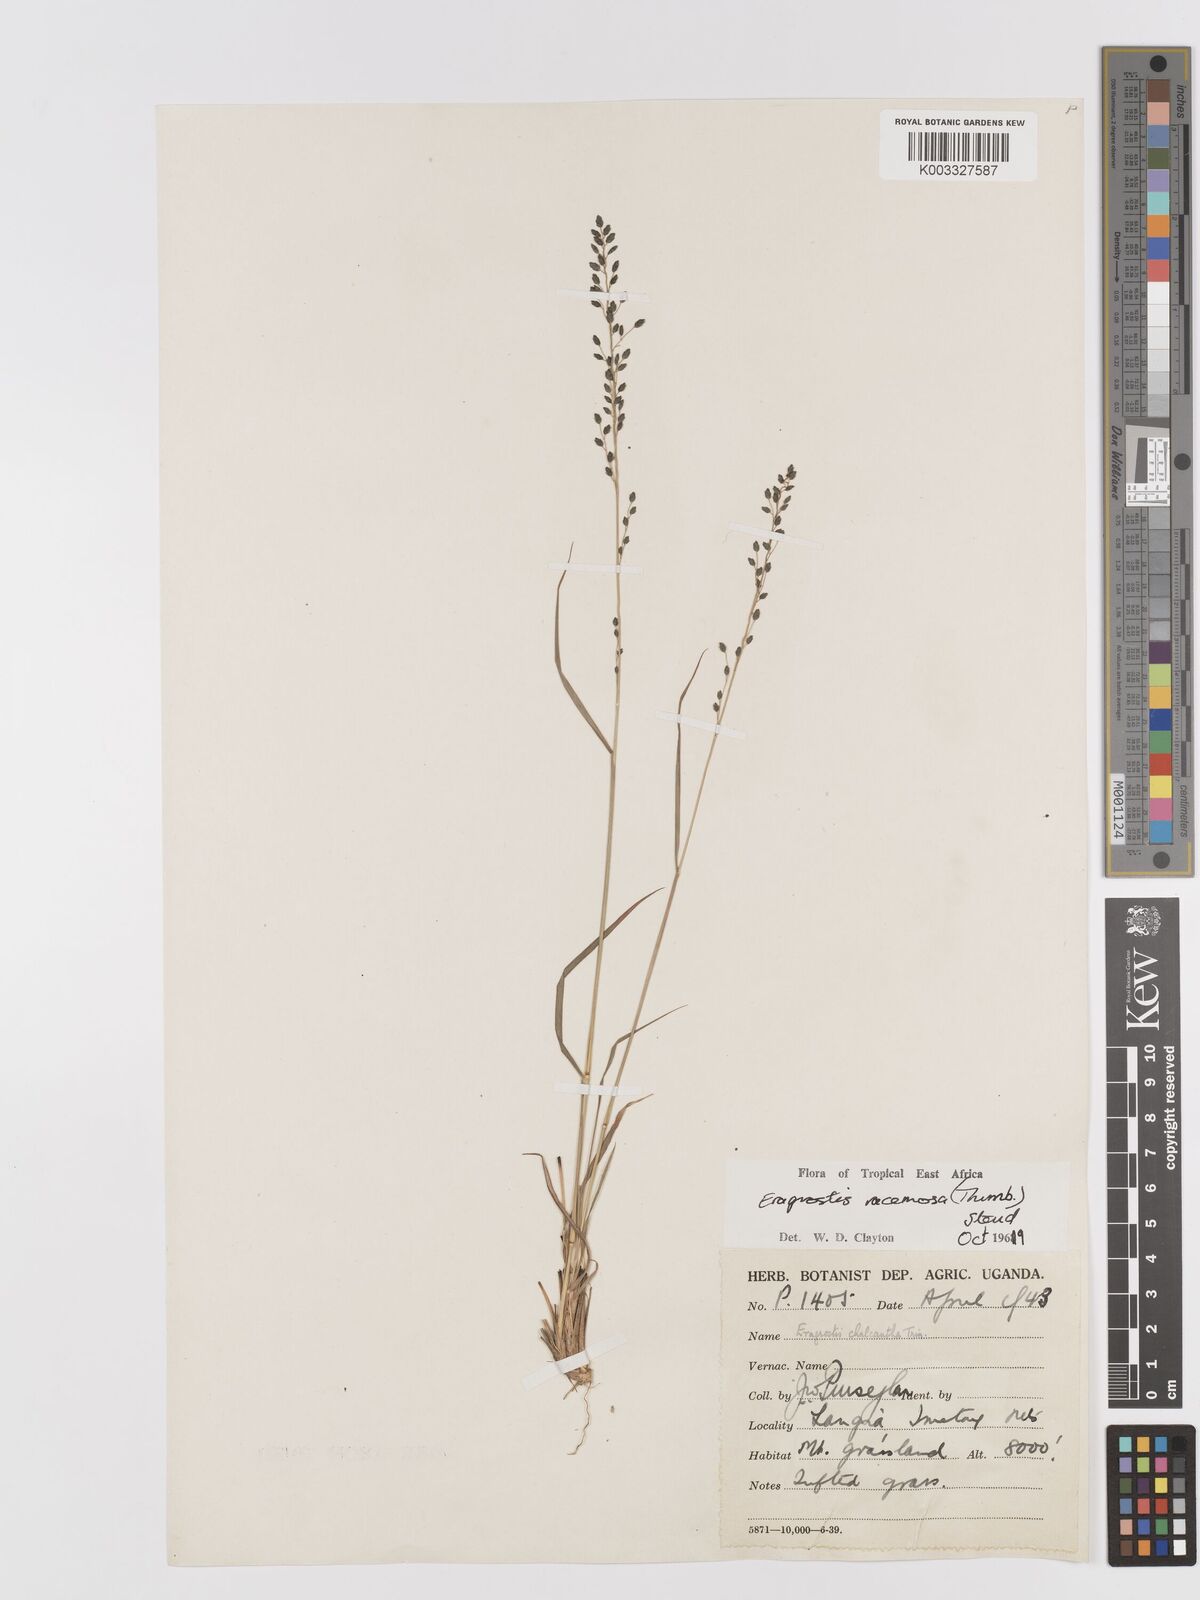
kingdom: Plantae
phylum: Tracheophyta
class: Liliopsida
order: Poales
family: Poaceae
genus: Eragrostis
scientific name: Eragrostis racemosa
